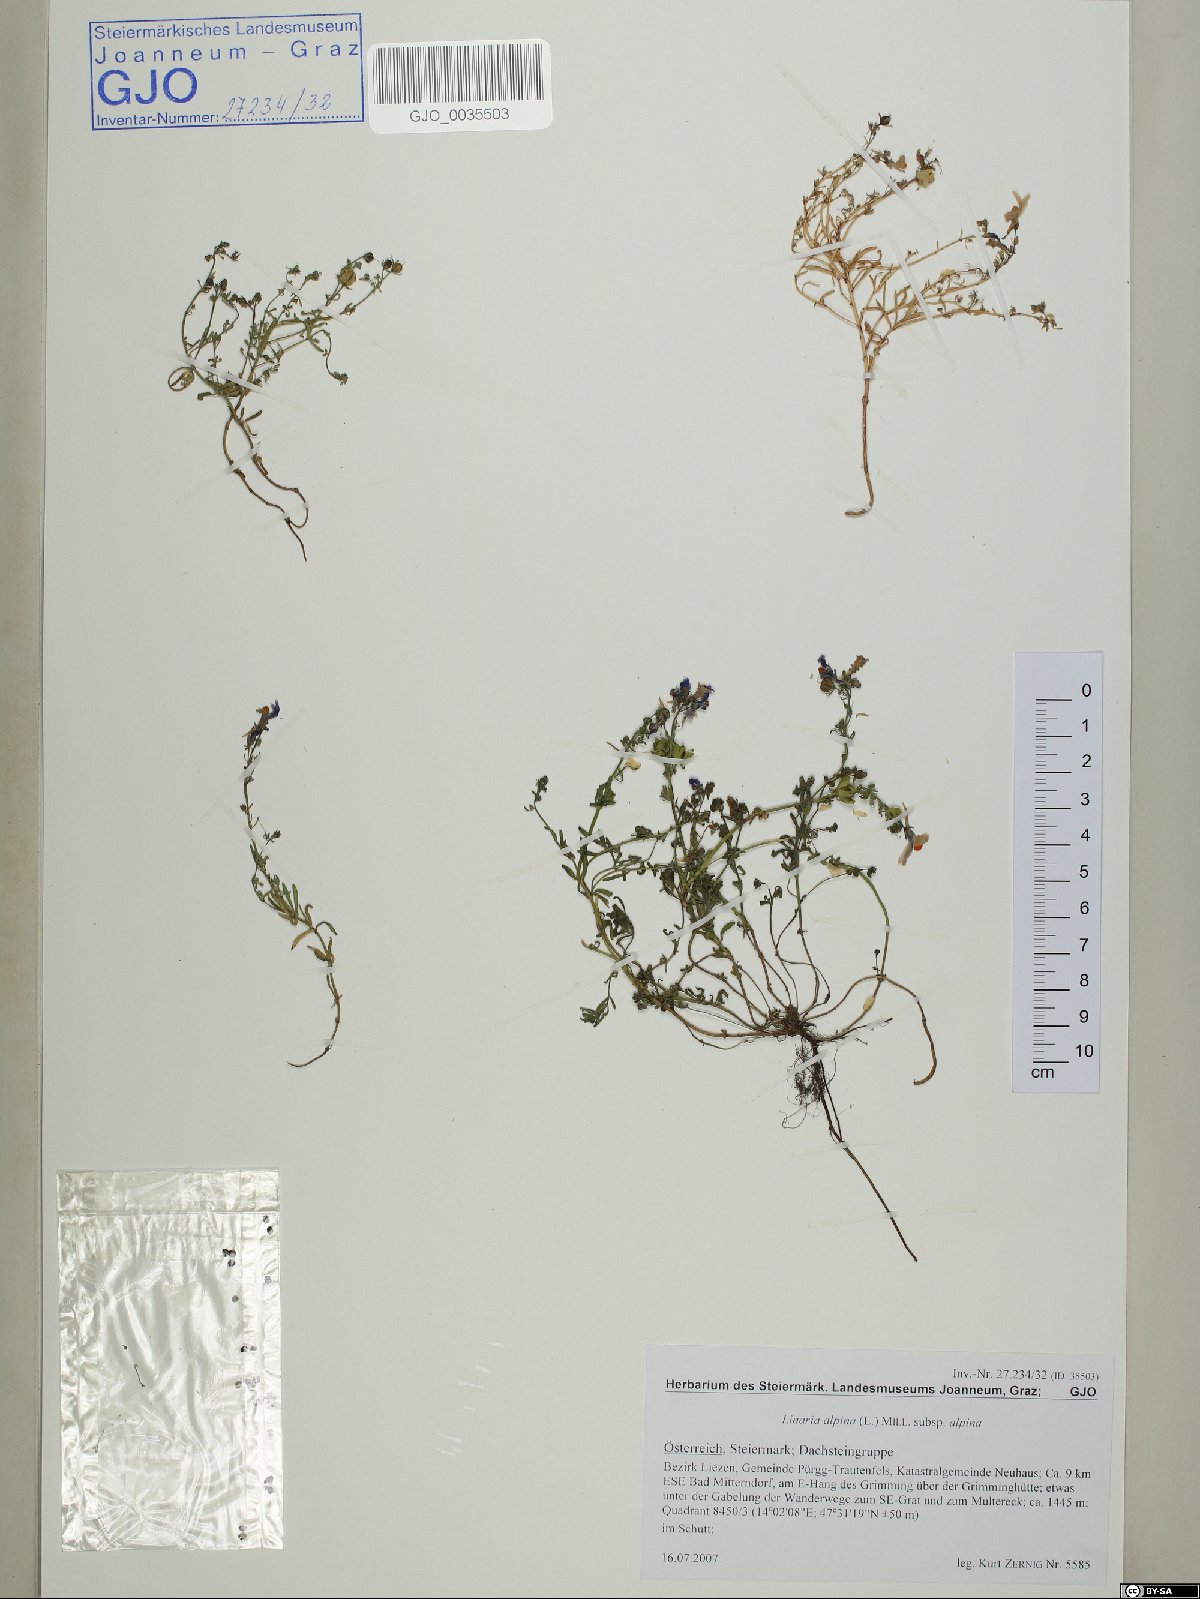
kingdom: Plantae
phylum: Tracheophyta
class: Magnoliopsida
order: Lamiales
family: Plantaginaceae
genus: Linaria
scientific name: Linaria alpina
